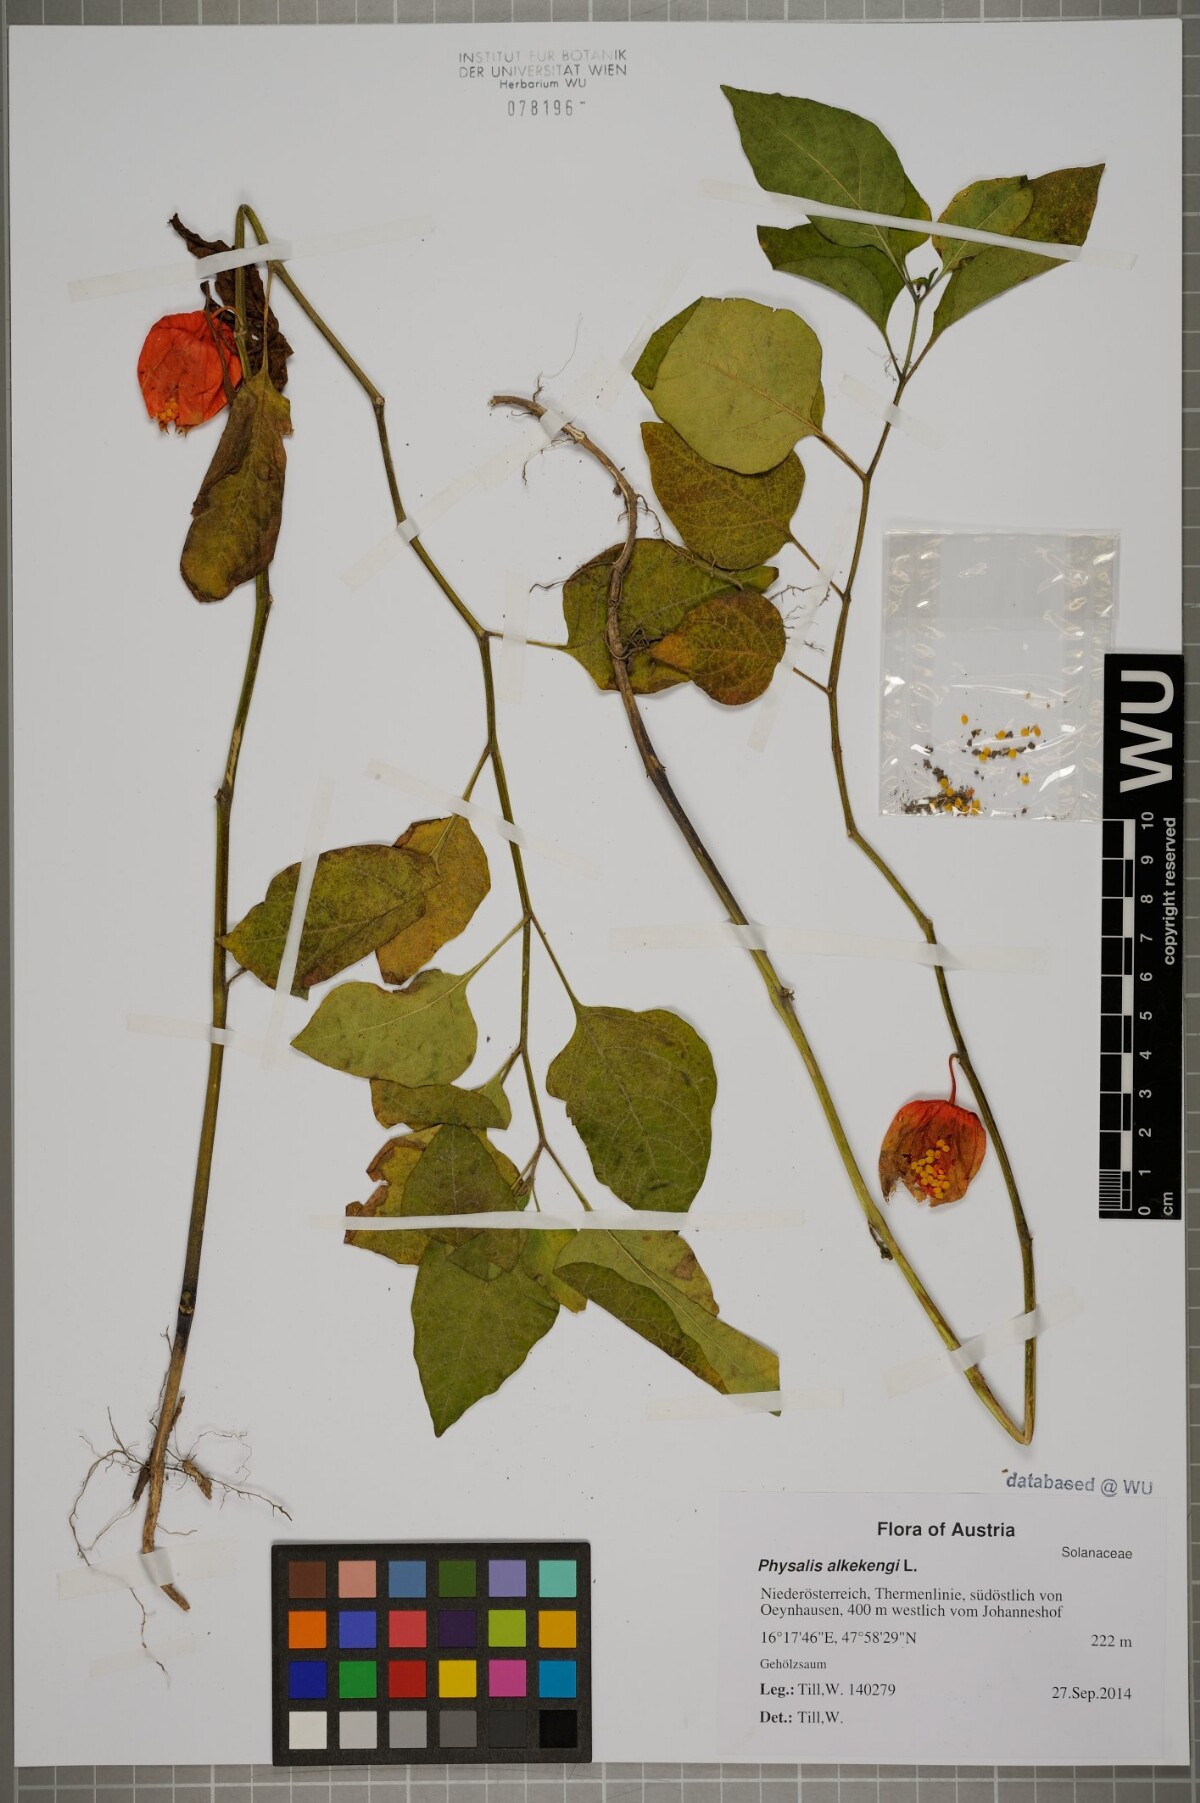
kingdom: Plantae
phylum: Tracheophyta
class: Magnoliopsida
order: Solanales
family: Solanaceae
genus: Alkekengi
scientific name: Alkekengi officinarum
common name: Japanese-lantern
